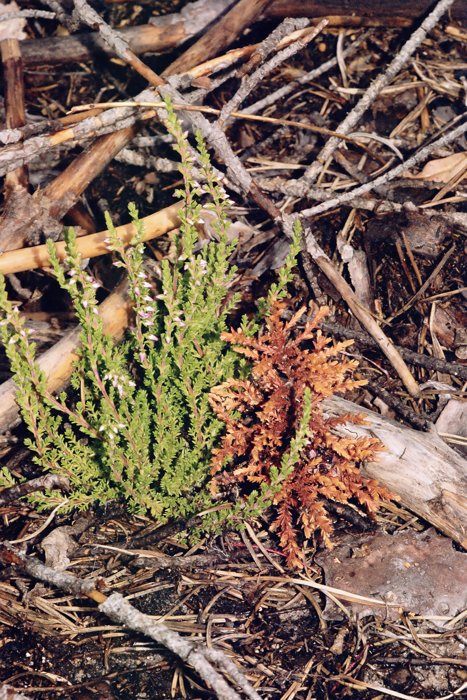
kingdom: Plantae
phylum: Tracheophyta
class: Magnoliopsida
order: Ericales
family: Ericaceae
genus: Calluna
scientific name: Calluna vulgaris
